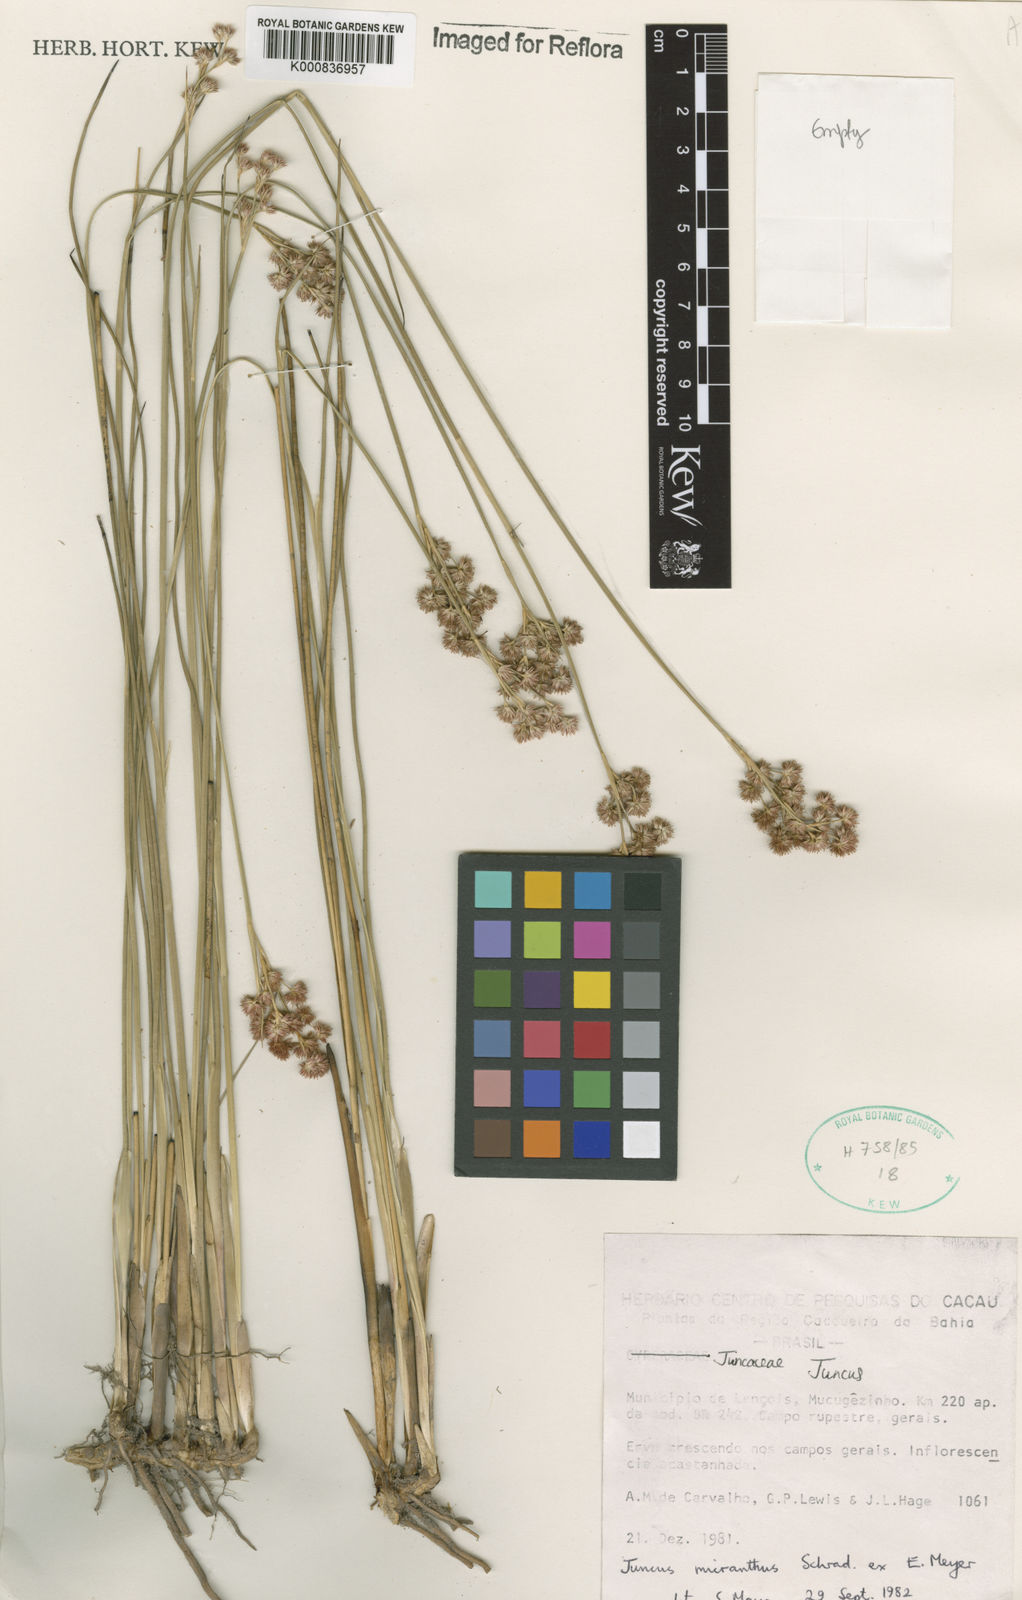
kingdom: Plantae
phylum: Tracheophyta
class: Liliopsida
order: Poales
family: Juncaceae
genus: Juncus
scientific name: Juncus
